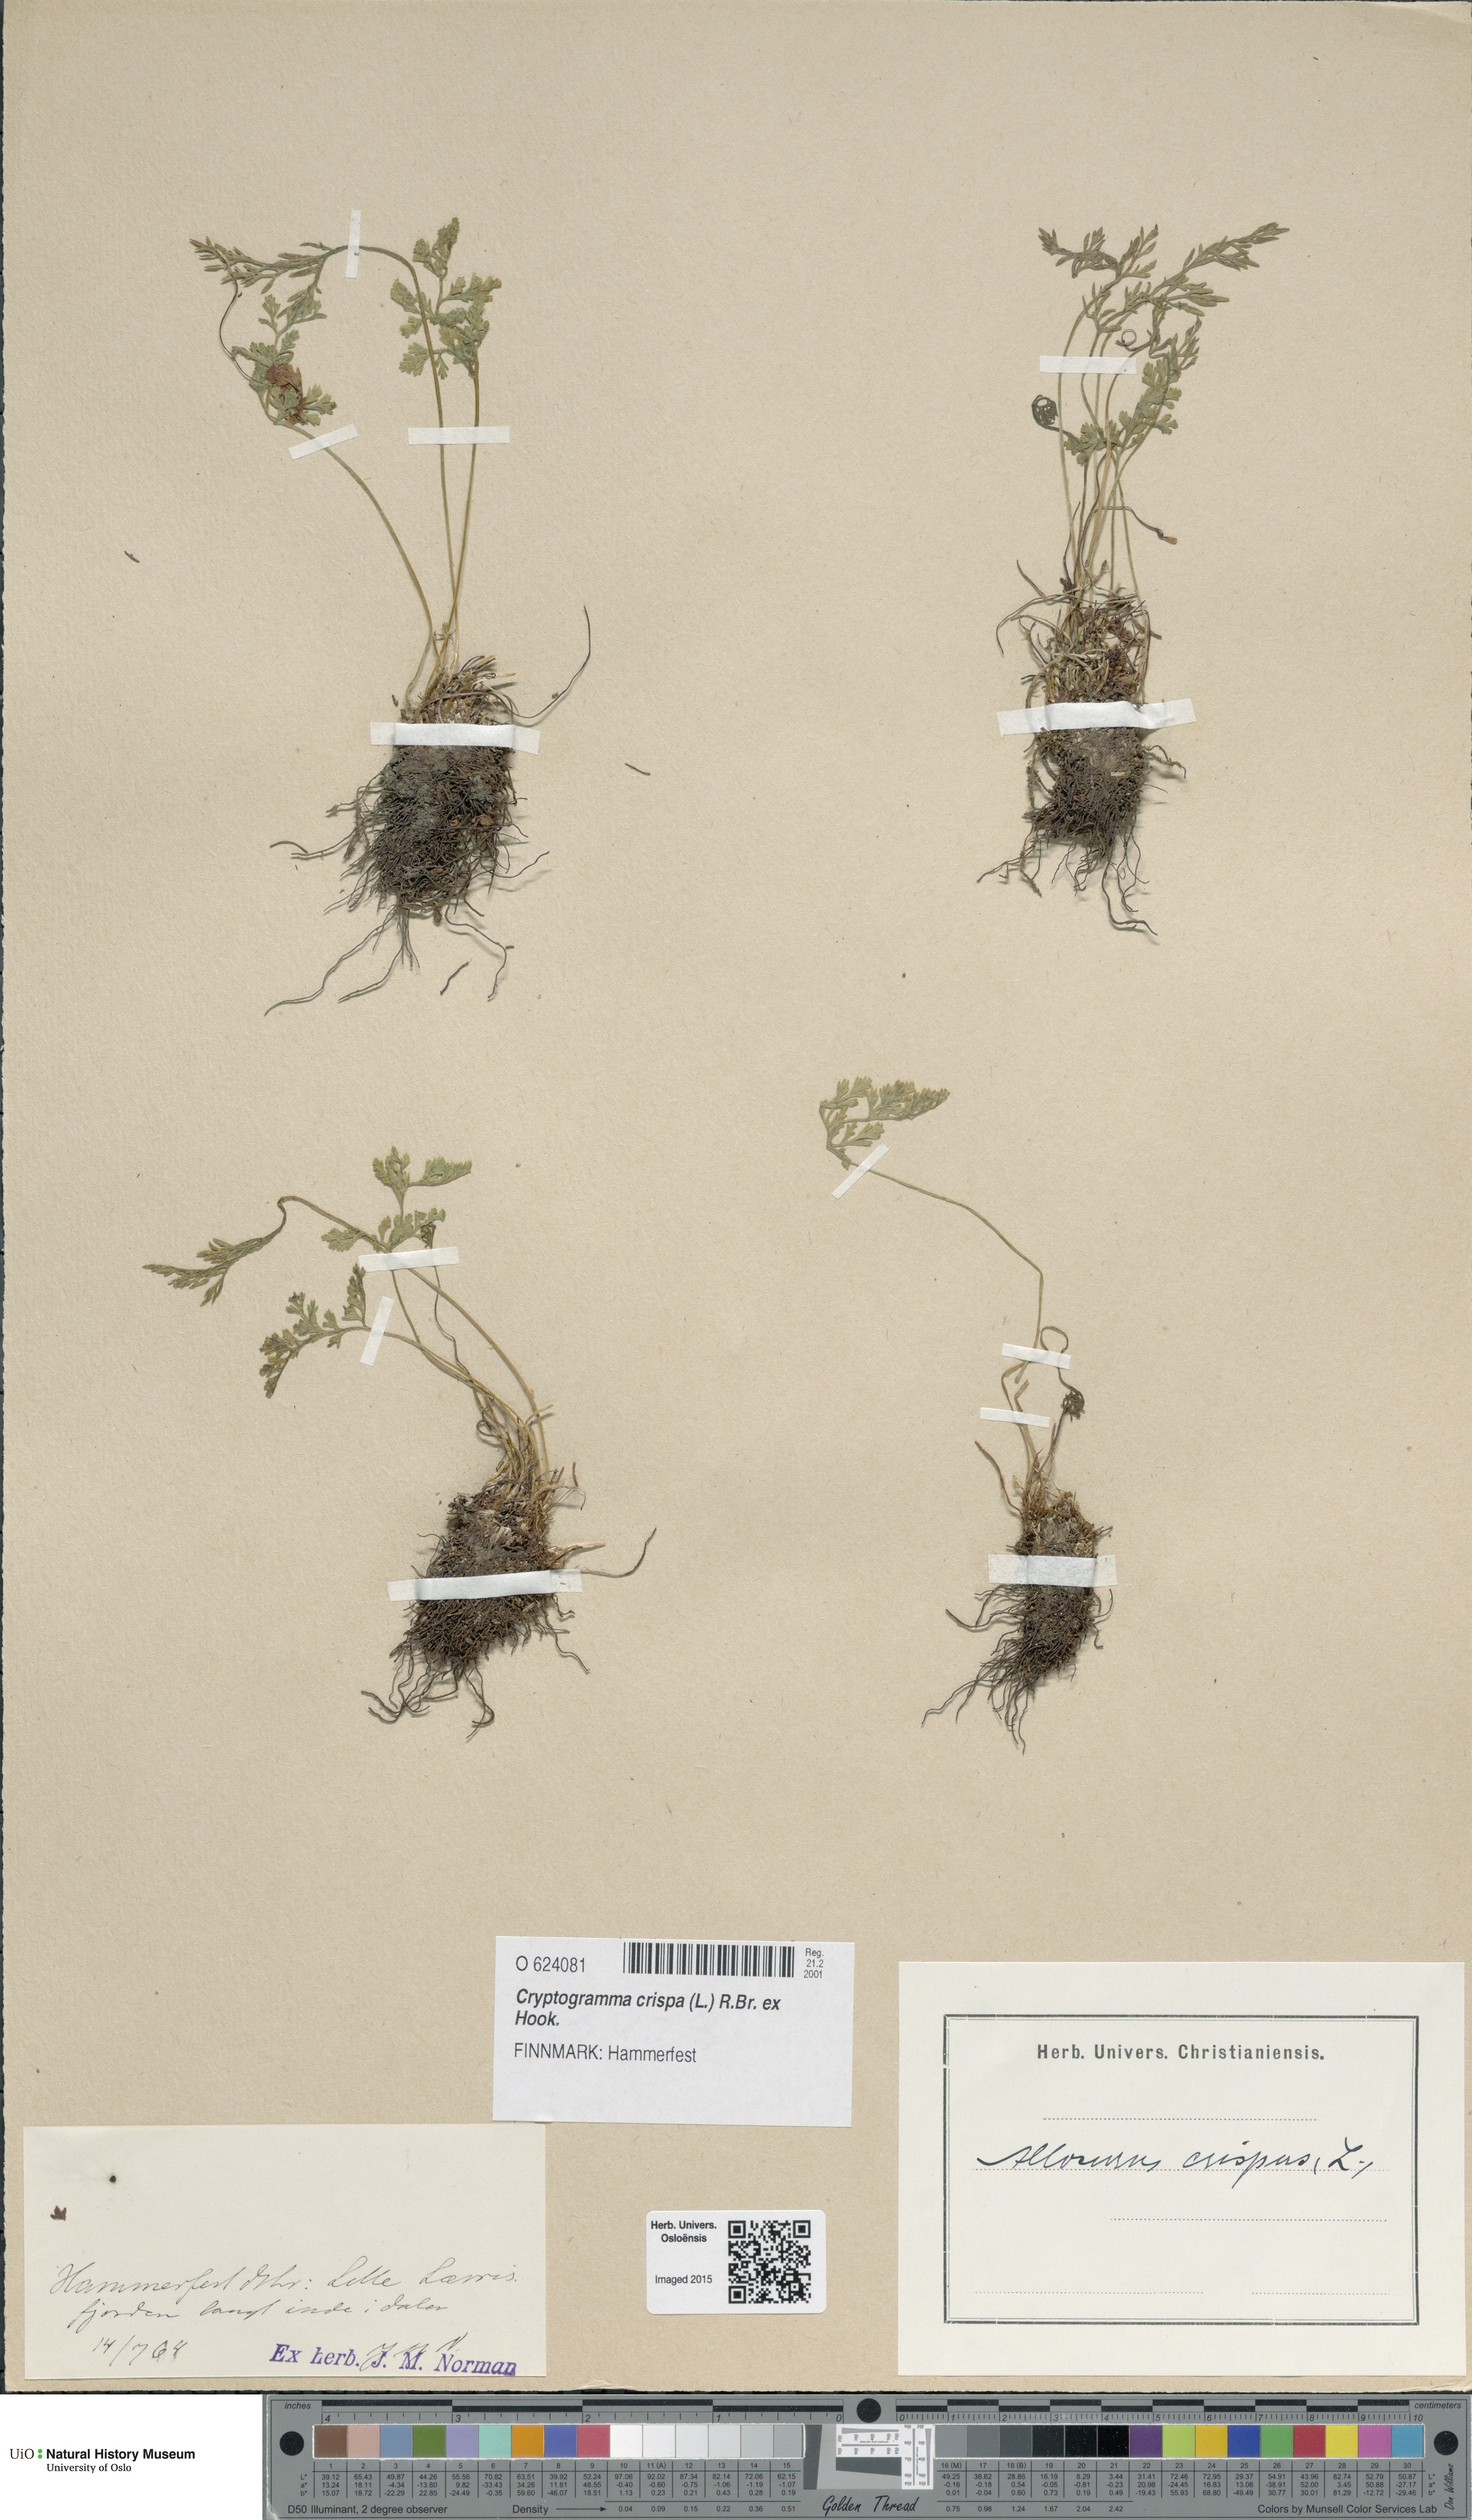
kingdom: Plantae
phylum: Tracheophyta
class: Polypodiopsida
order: Polypodiales
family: Pteridaceae
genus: Cryptogramma
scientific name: Cryptogramma crispa
